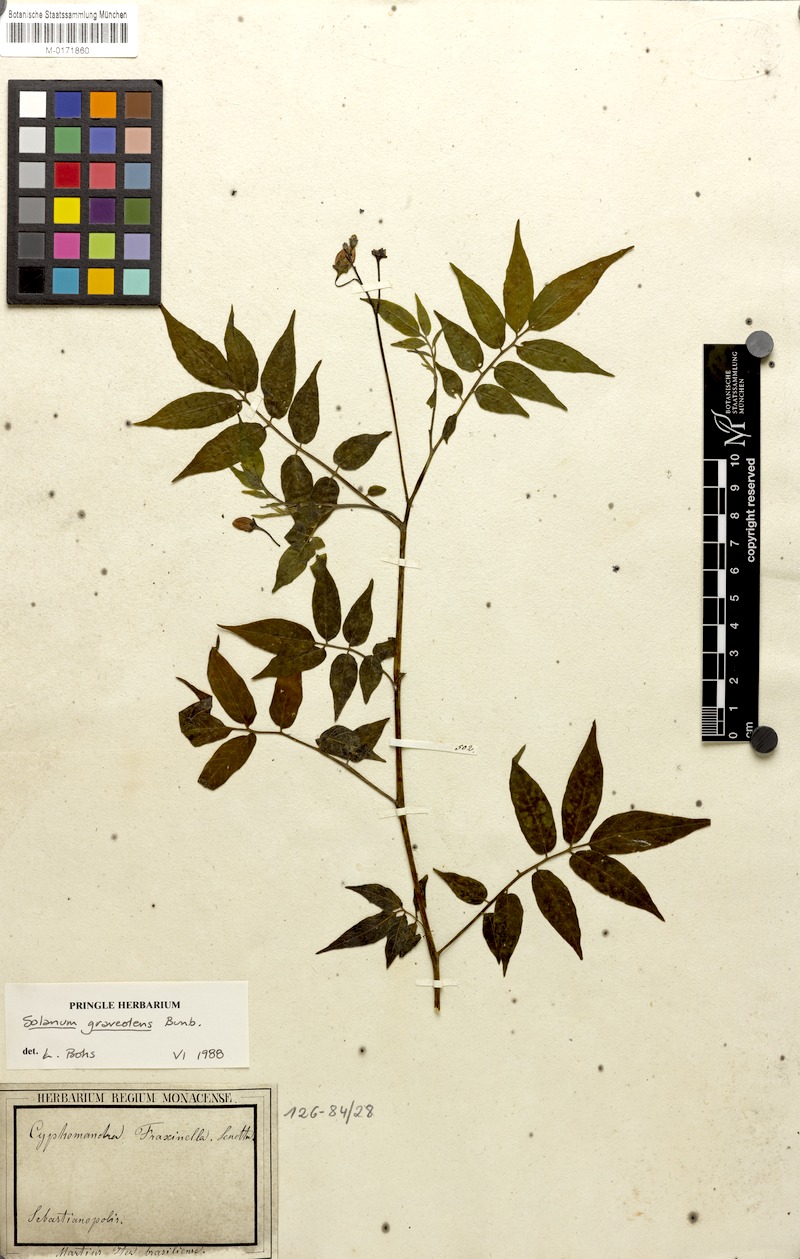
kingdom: Plantae
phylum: Tracheophyta
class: Magnoliopsida
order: Solanales
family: Solanaceae
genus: Solanum
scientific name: Solanum graveolens
